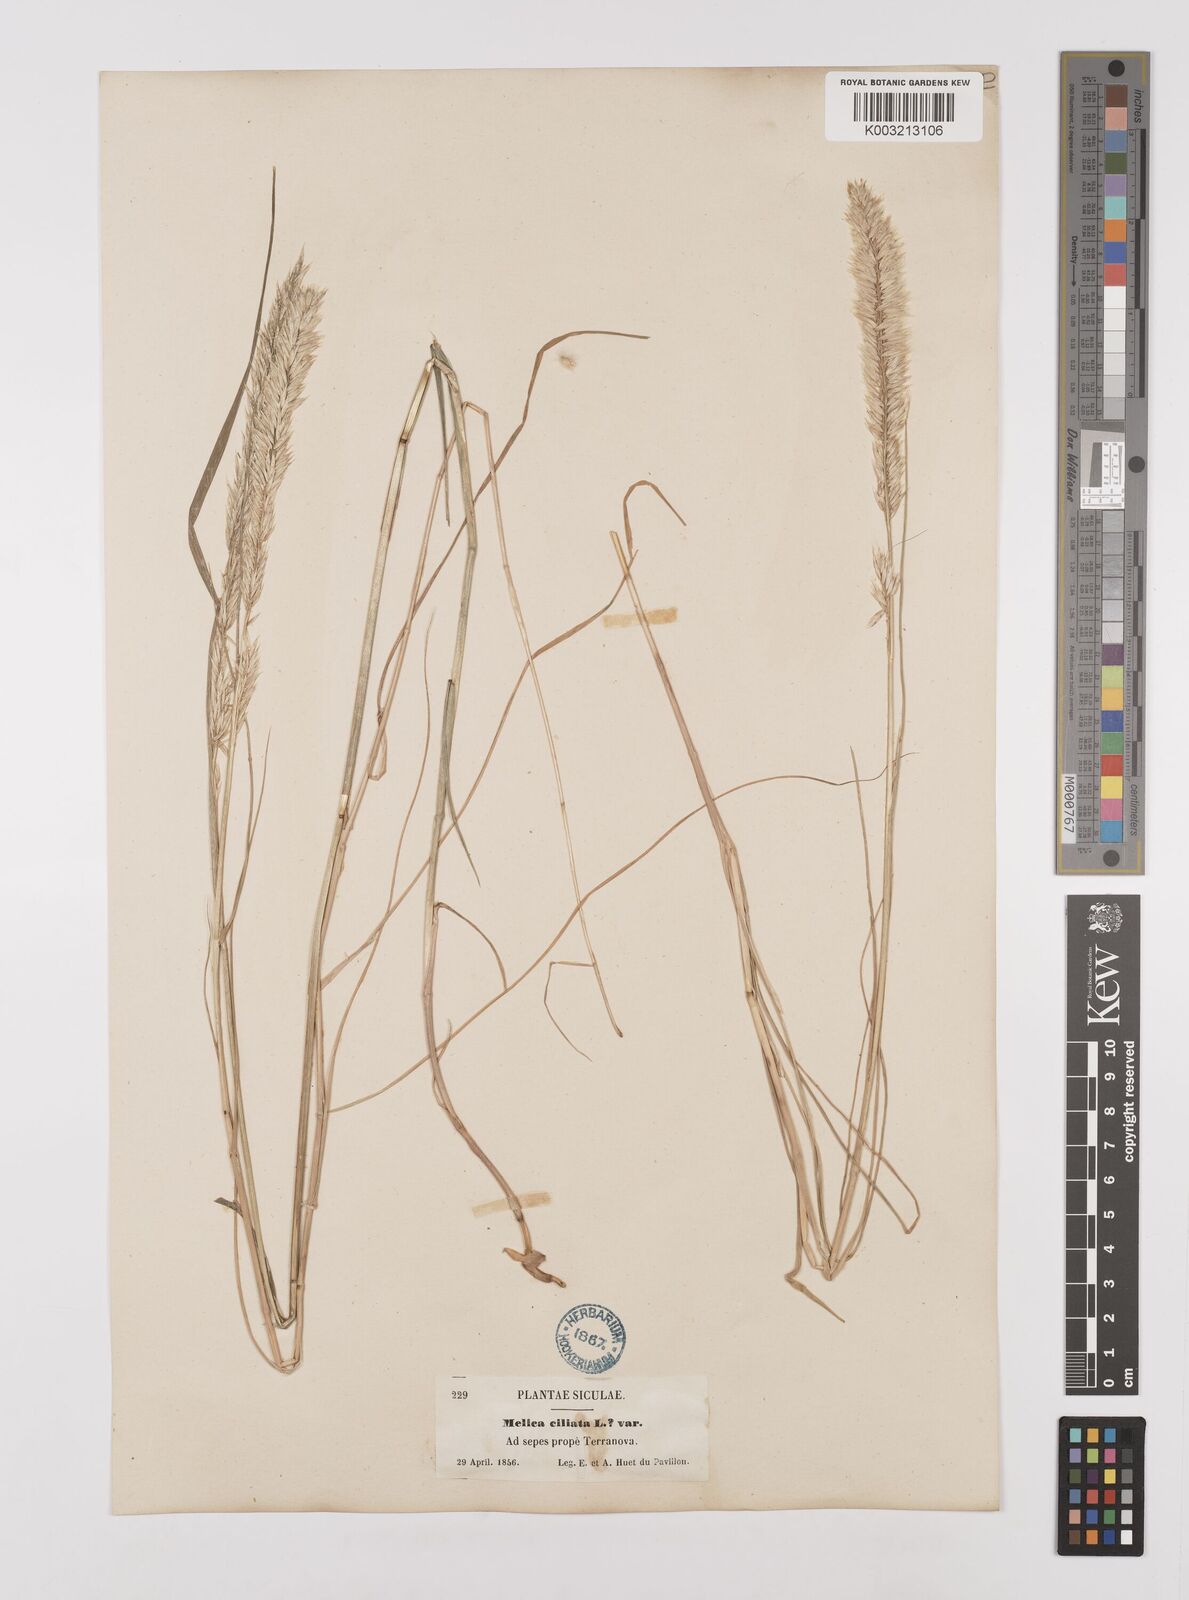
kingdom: Plantae
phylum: Tracheophyta
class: Liliopsida
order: Poales
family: Poaceae
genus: Melica
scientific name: Melica ciliata
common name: Hairy melicgrass
